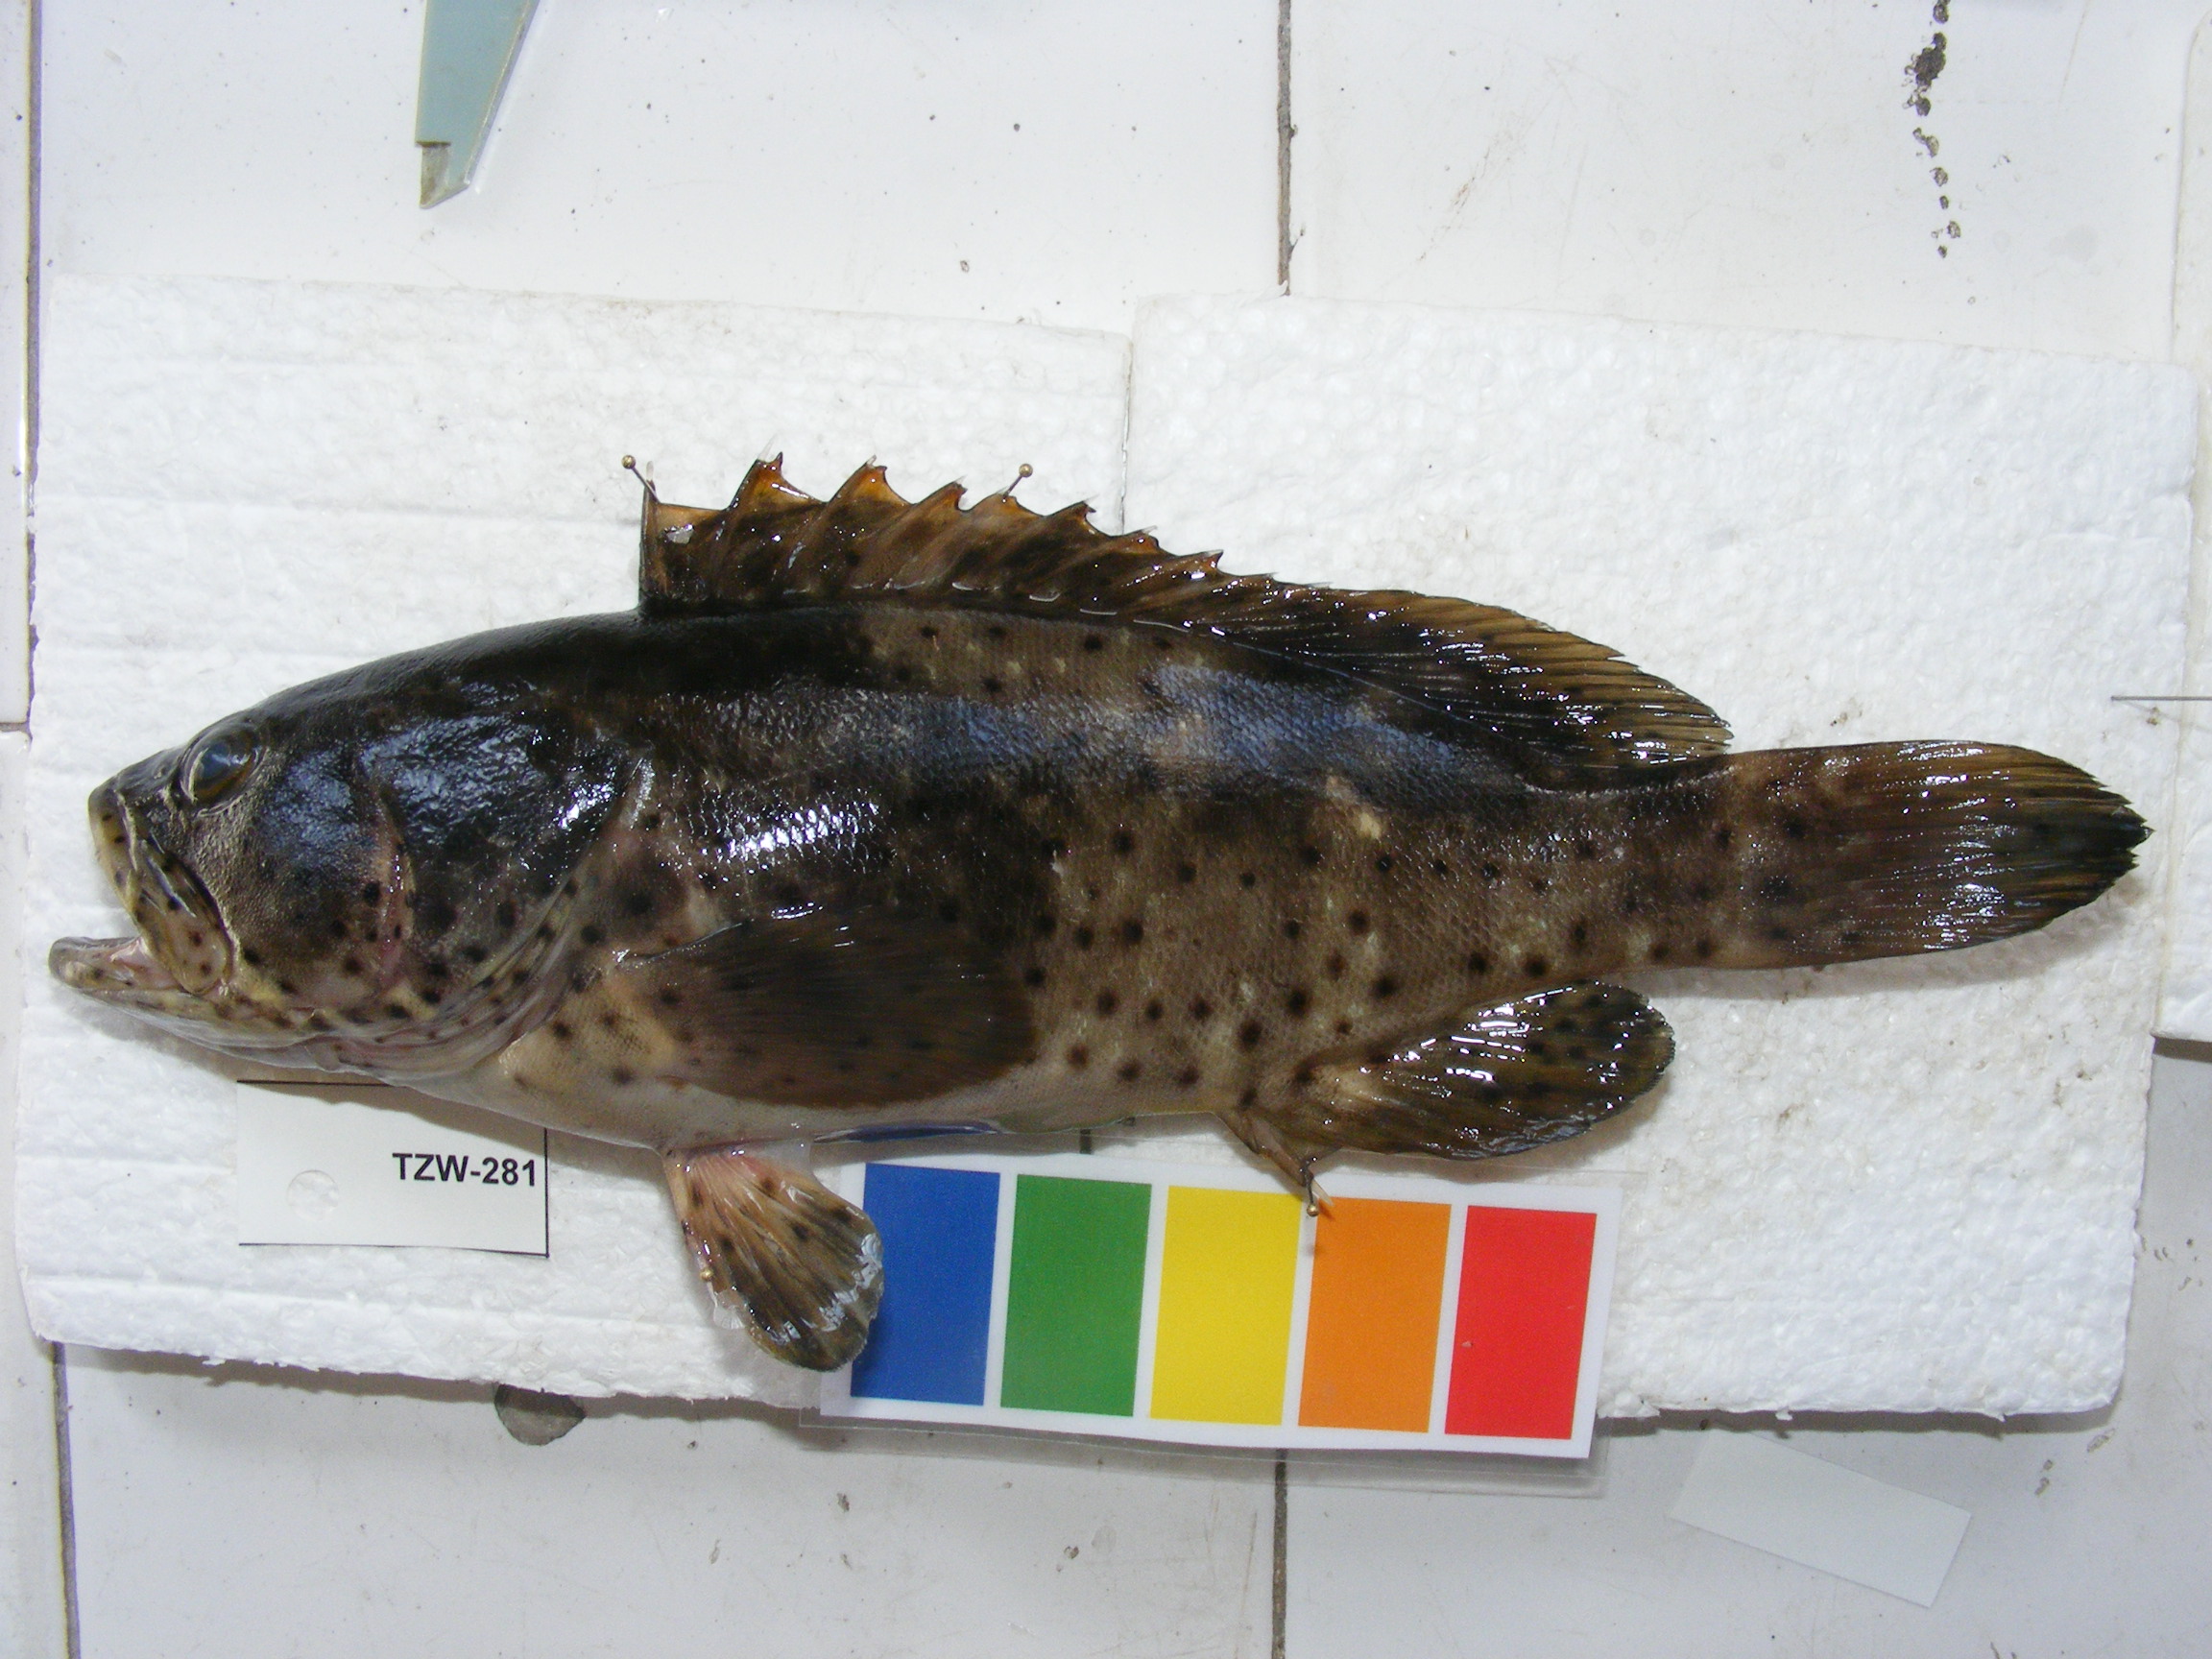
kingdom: Animalia
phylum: Chordata
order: Perciformes
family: Serranidae
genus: Epinephelus
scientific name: Epinephelus malabaricus
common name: Malabar grouper
